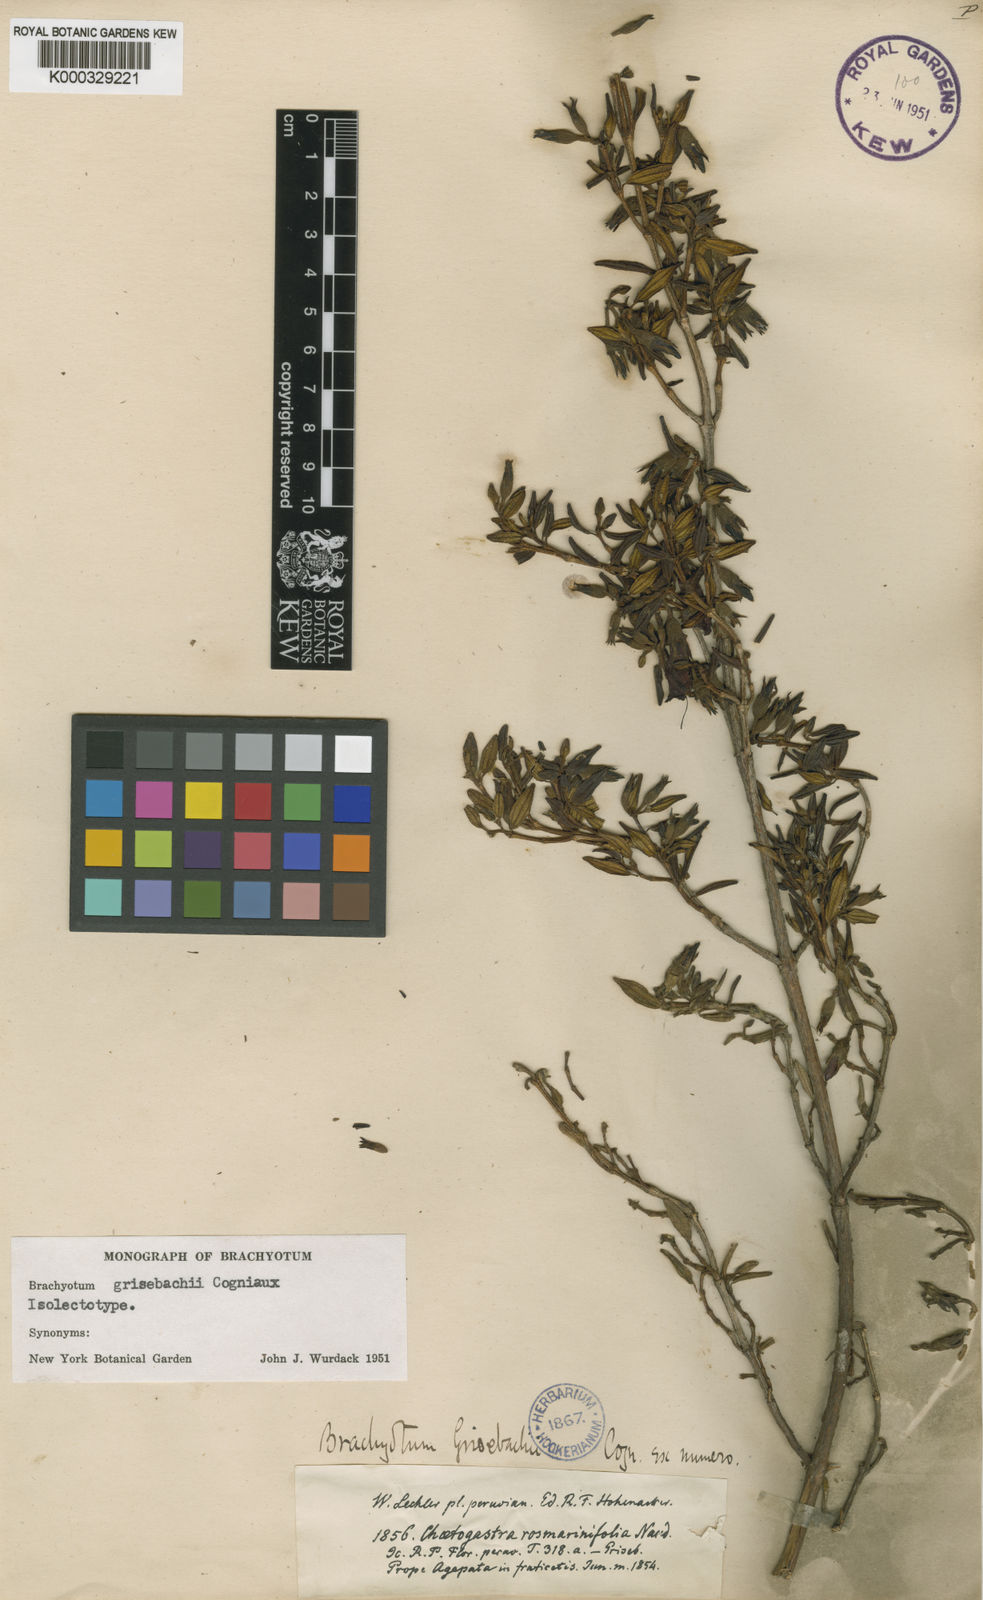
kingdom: Plantae
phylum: Tracheophyta
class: Magnoliopsida
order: Myrtales
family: Melastomataceae
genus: Brachyotum
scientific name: Brachyotum grisebachii
